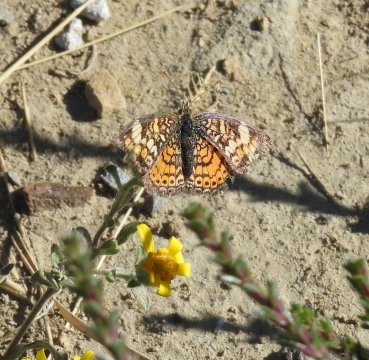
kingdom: Animalia
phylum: Arthropoda
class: Insecta
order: Lepidoptera
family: Nymphalidae
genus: Phyciodes
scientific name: Phyciodes tharos
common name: Pearl Crescent
